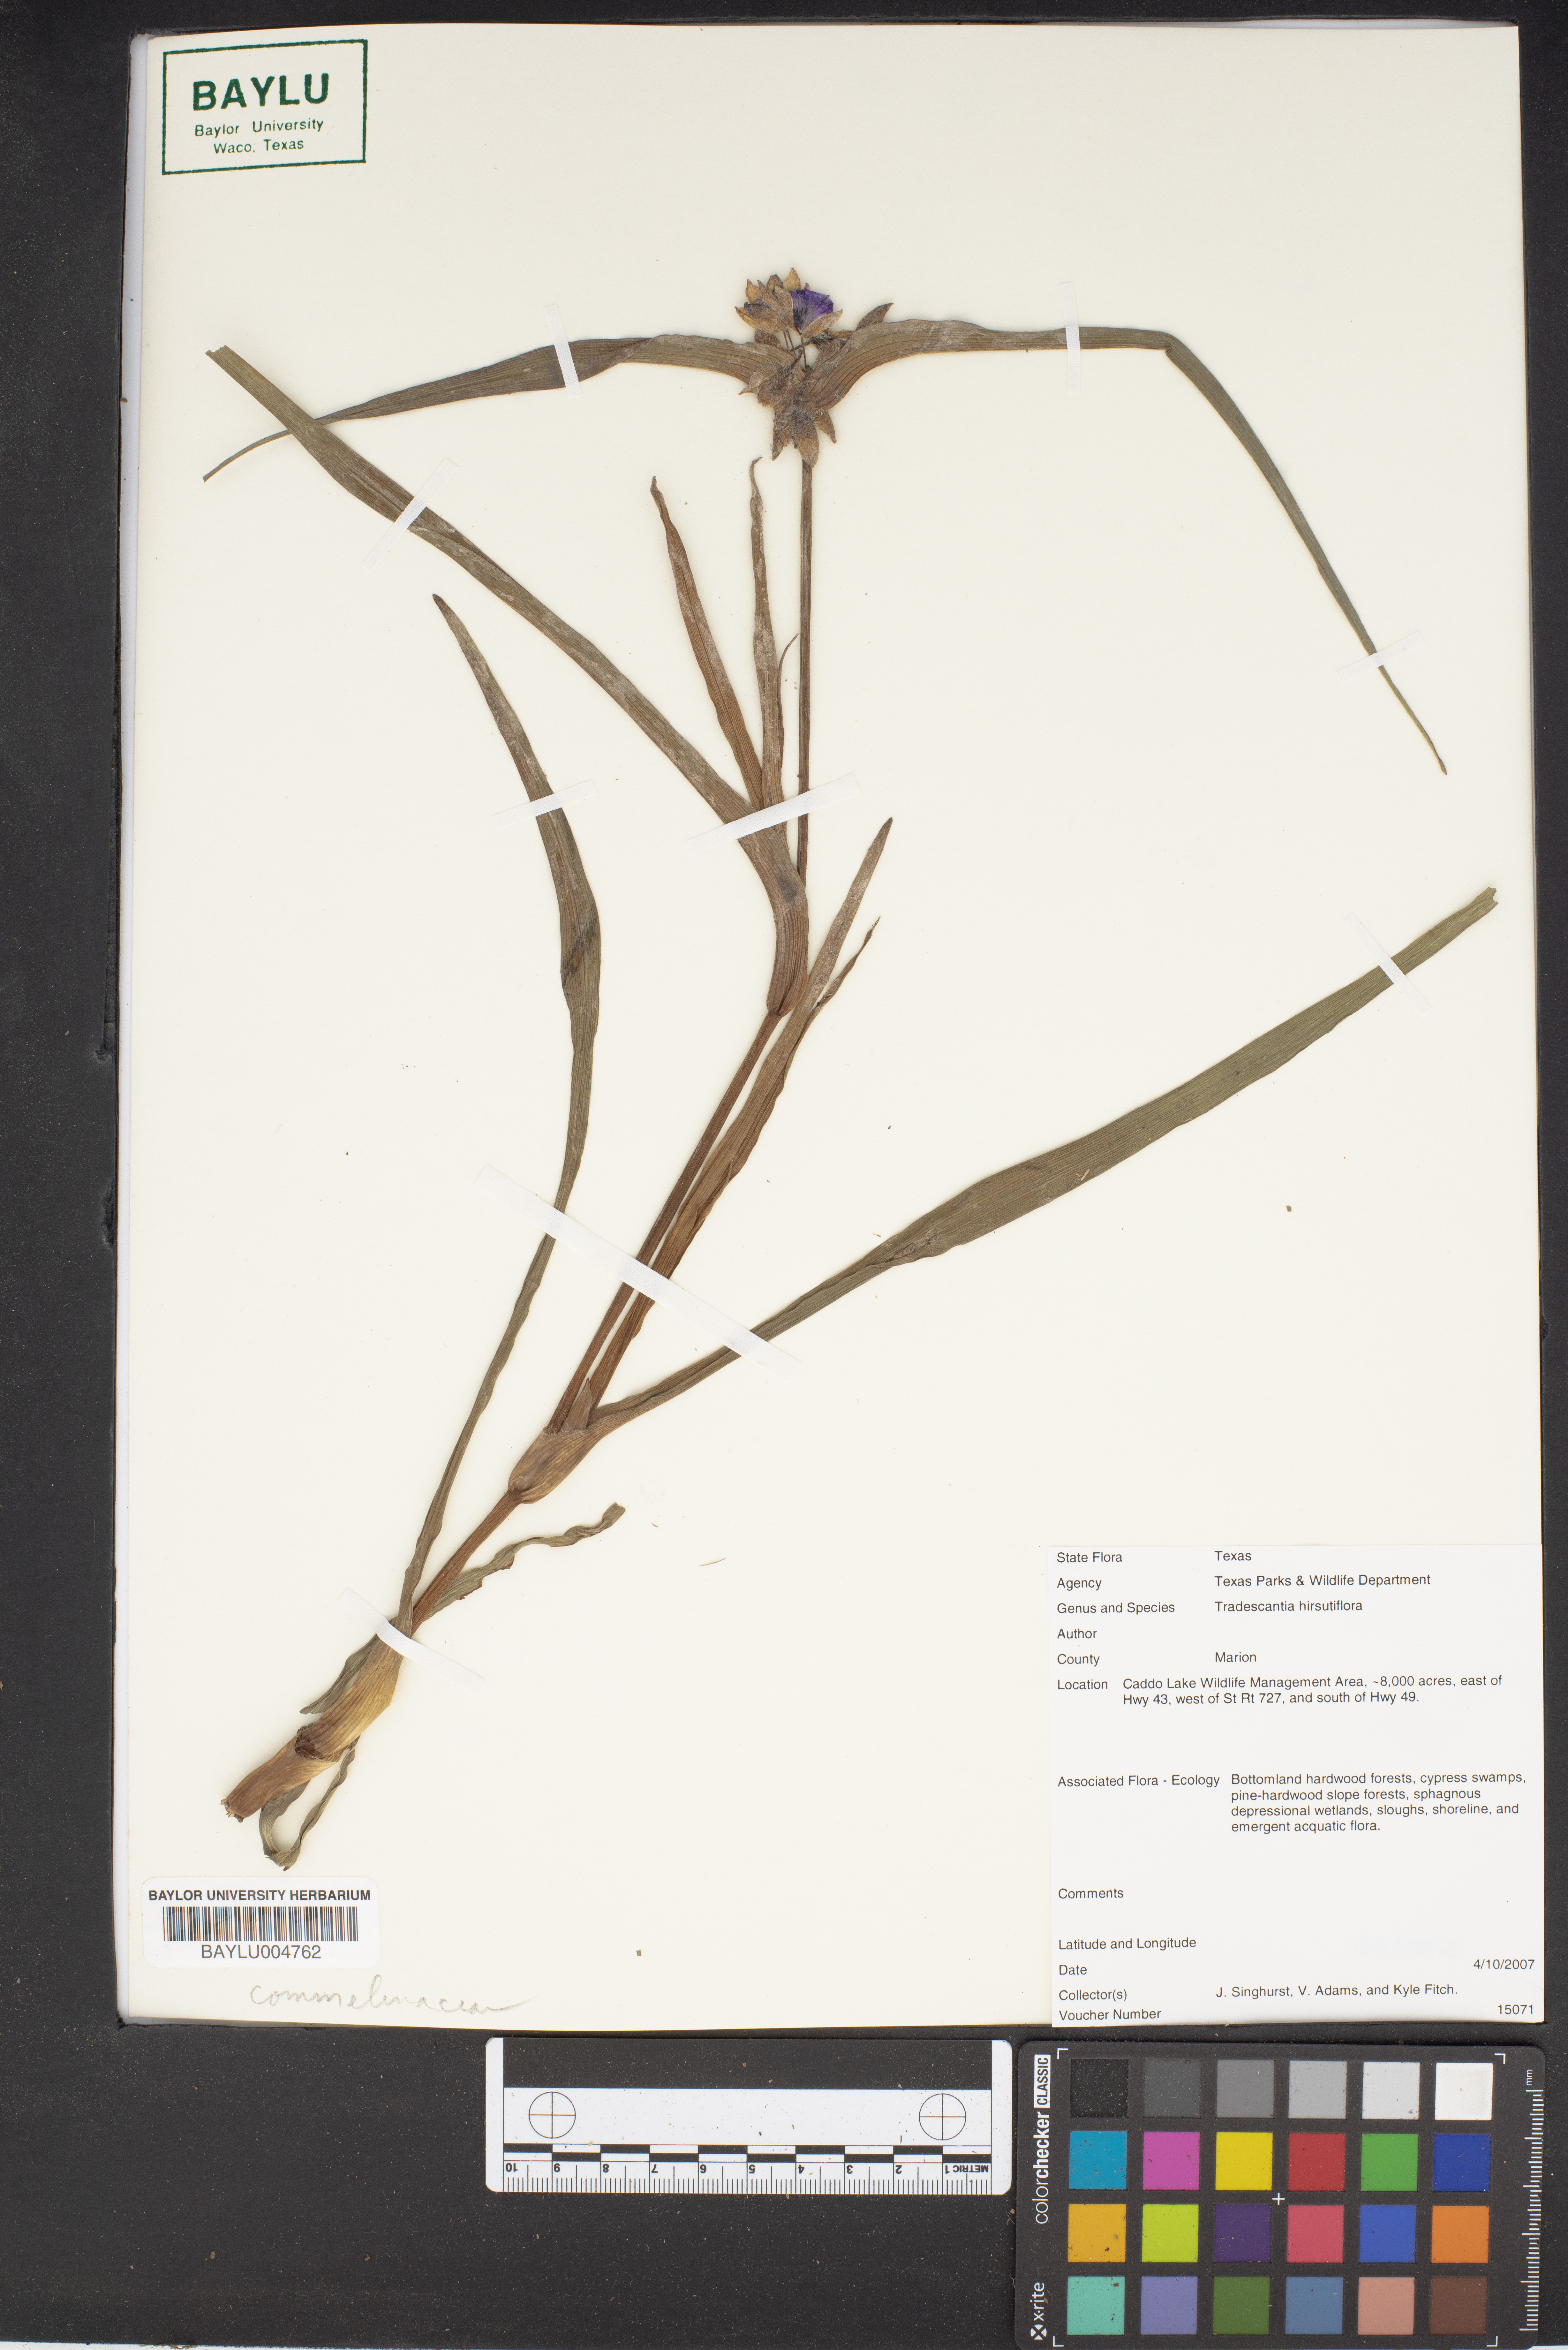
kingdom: Plantae
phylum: Tracheophyta
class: Liliopsida
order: Commelinales
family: Commelinaceae
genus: Tradescantia
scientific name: Tradescantia hirsutiflora
